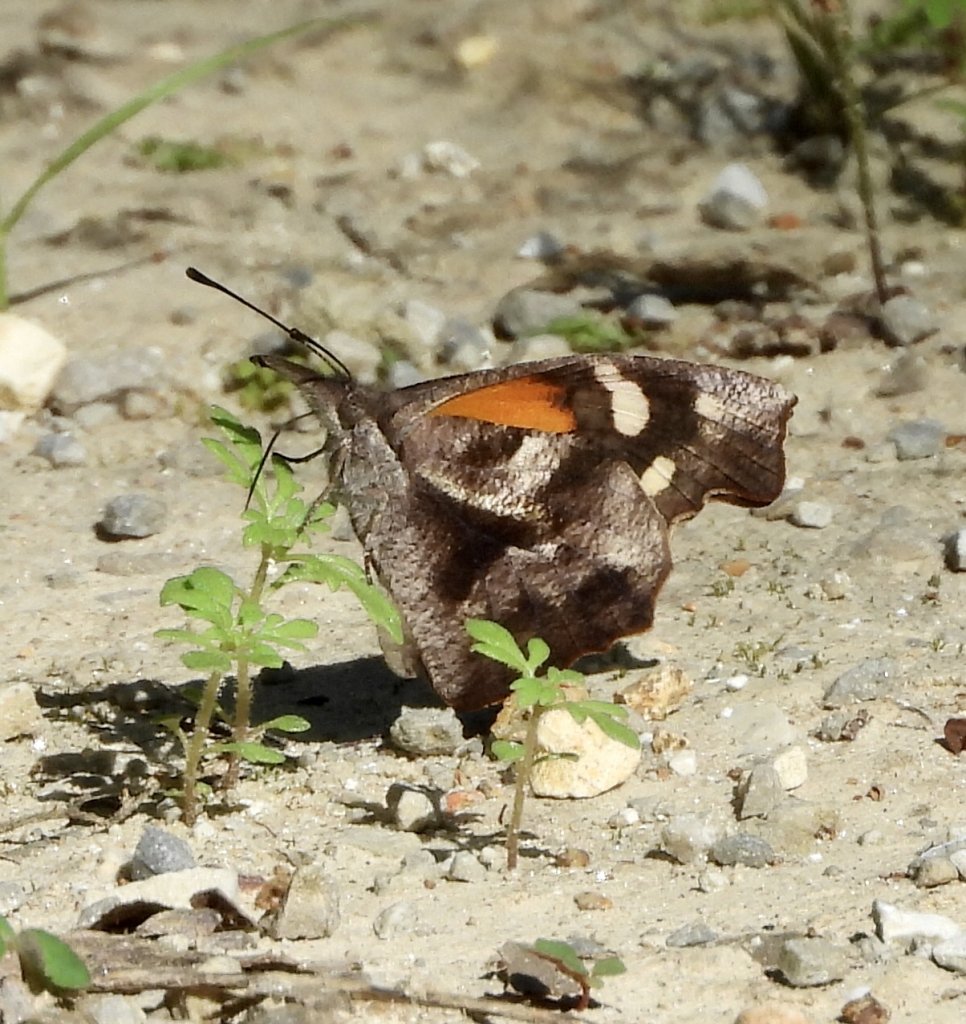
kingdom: Animalia
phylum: Arthropoda
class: Insecta
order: Lepidoptera
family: Nymphalidae
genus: Libytheana
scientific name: Libytheana carinenta
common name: American Snout
